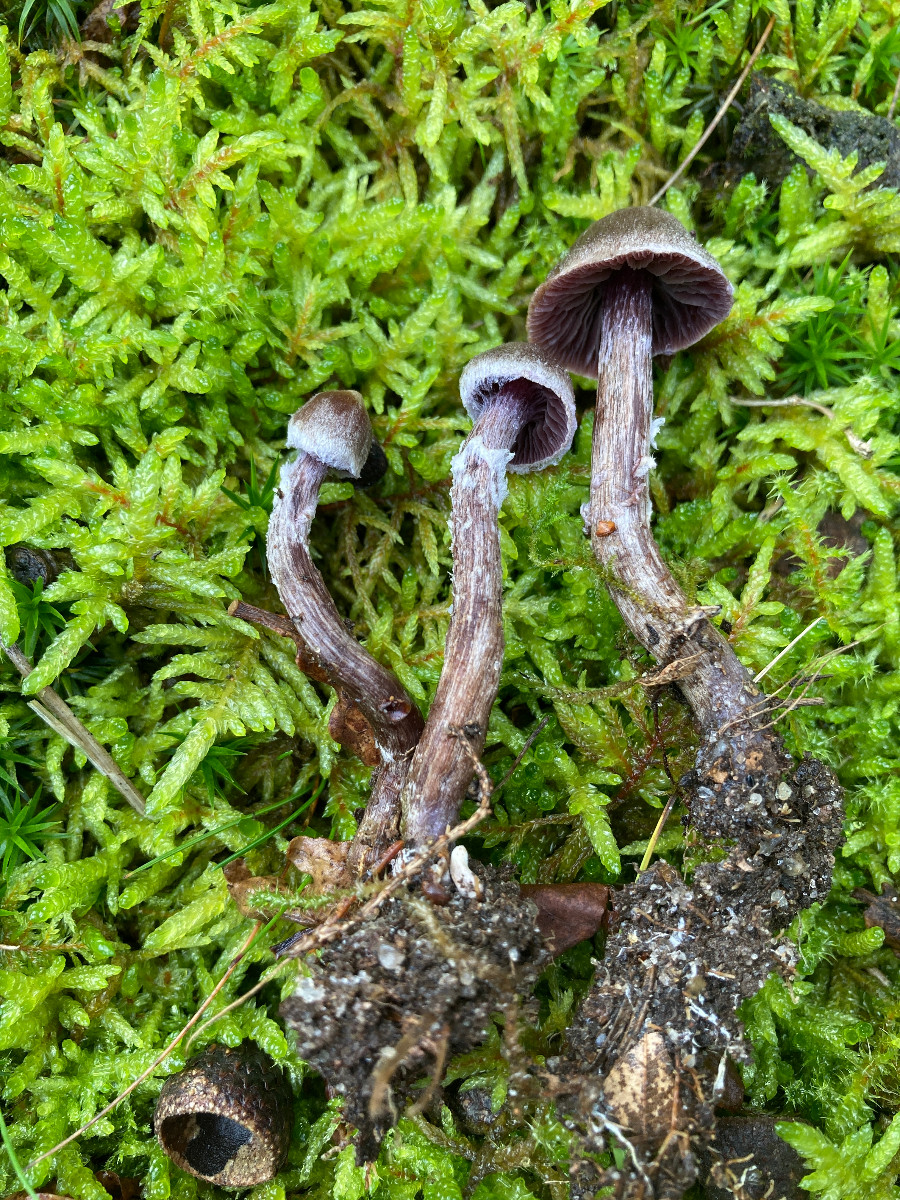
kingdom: Fungi
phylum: Basidiomycota
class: Agaricomycetes
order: Agaricales
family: Cortinariaceae
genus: Cortinarius
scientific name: Cortinarius
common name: pelargonie-slørhat
